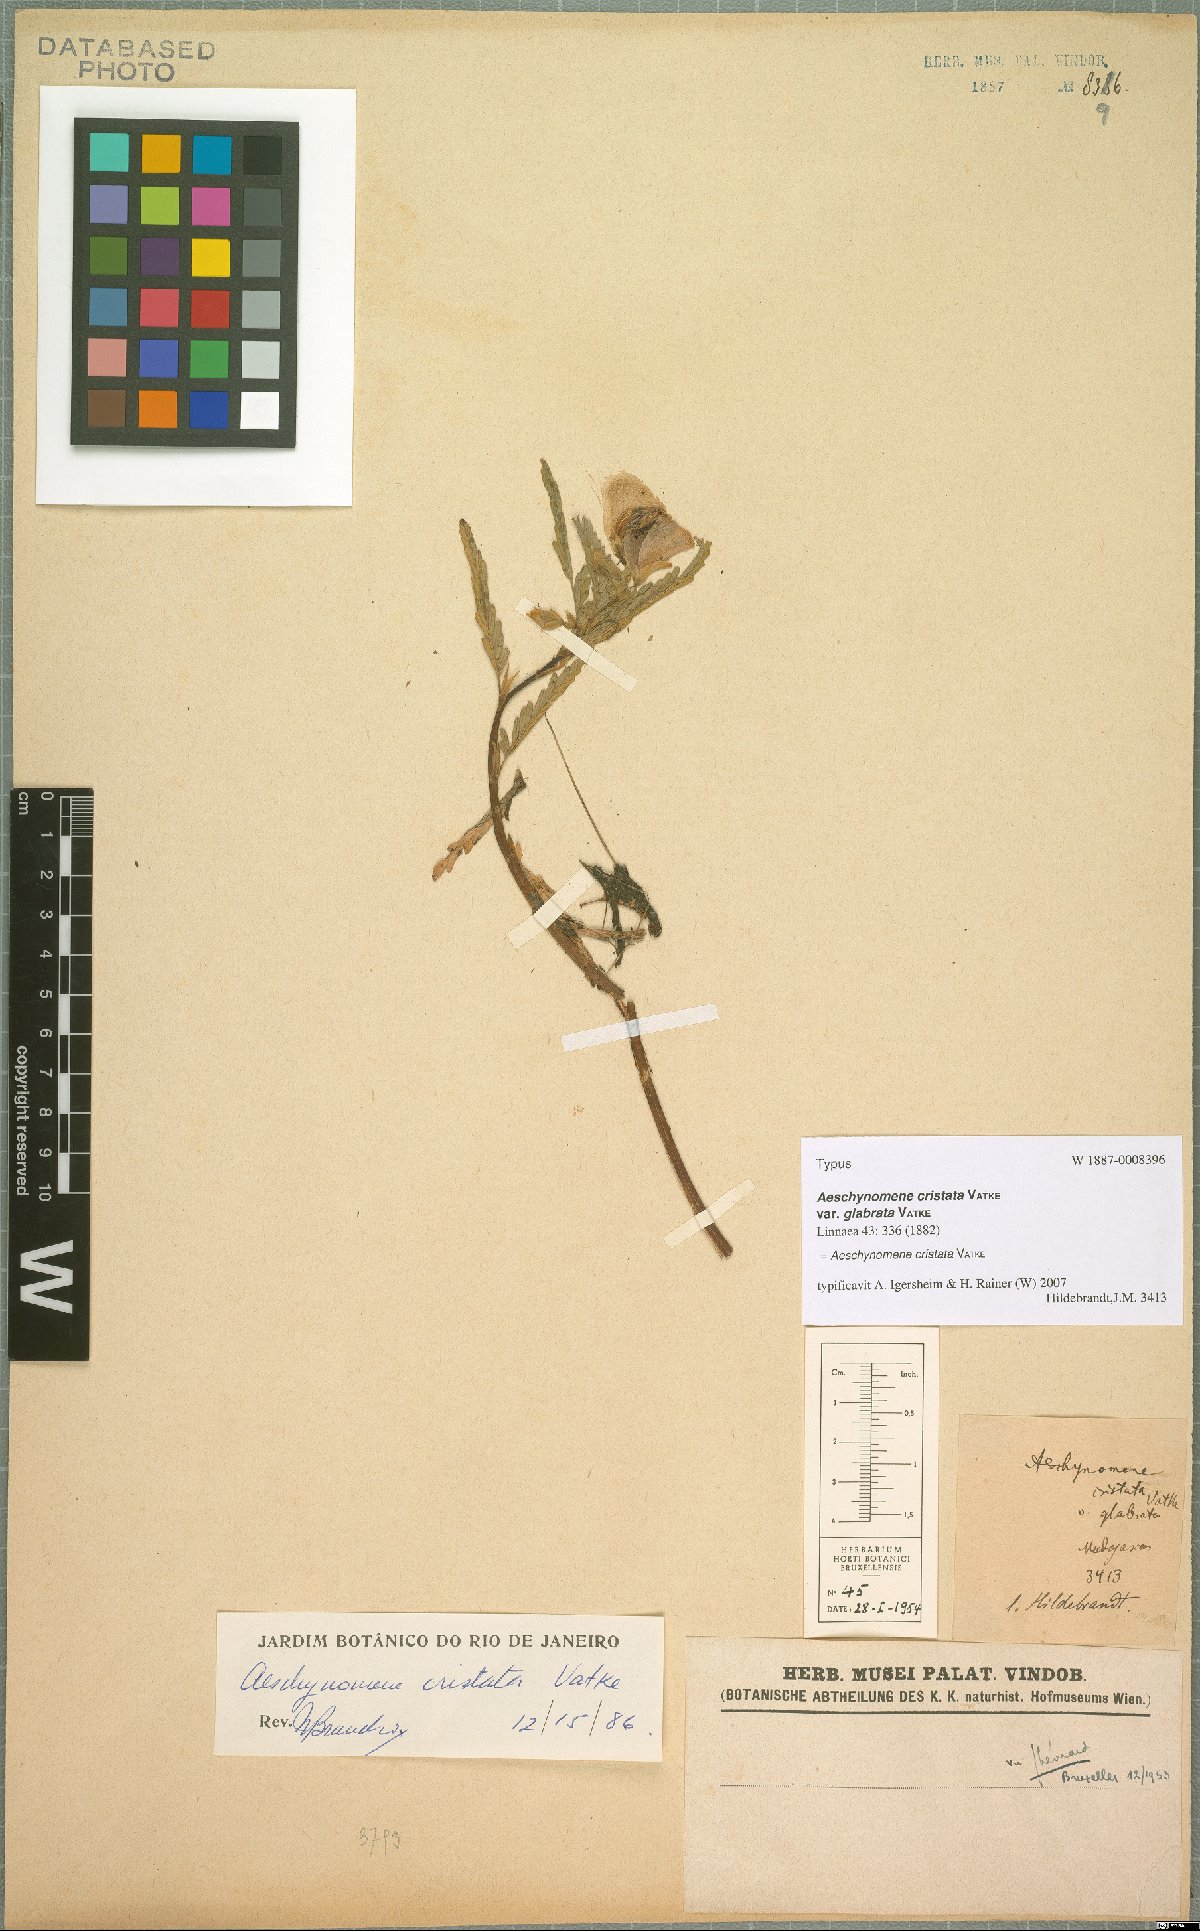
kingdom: Plantae
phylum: Tracheophyta
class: Magnoliopsida
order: Fabales
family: Fabaceae
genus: Aeschynomene
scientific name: Aeschynomene cristata
